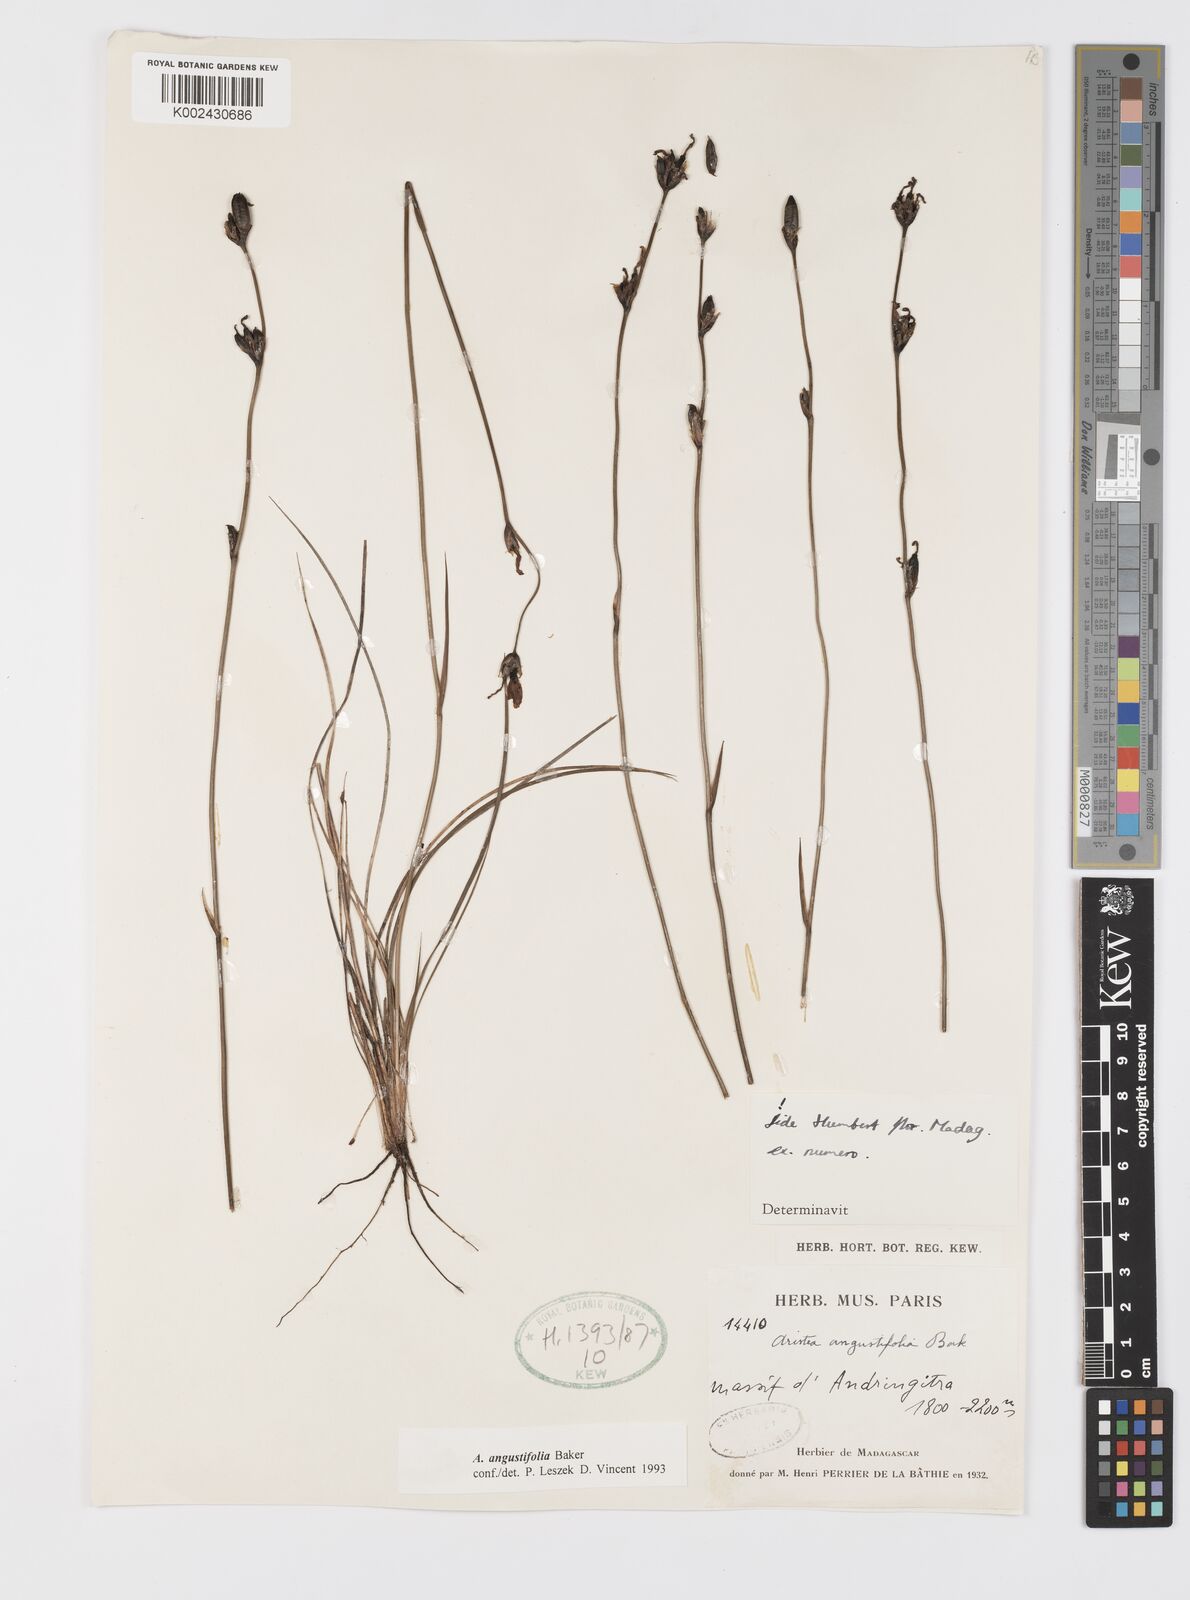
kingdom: Plantae
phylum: Tracheophyta
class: Liliopsida
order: Asparagales
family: Iridaceae
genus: Aristea
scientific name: Aristea madagascariensis
